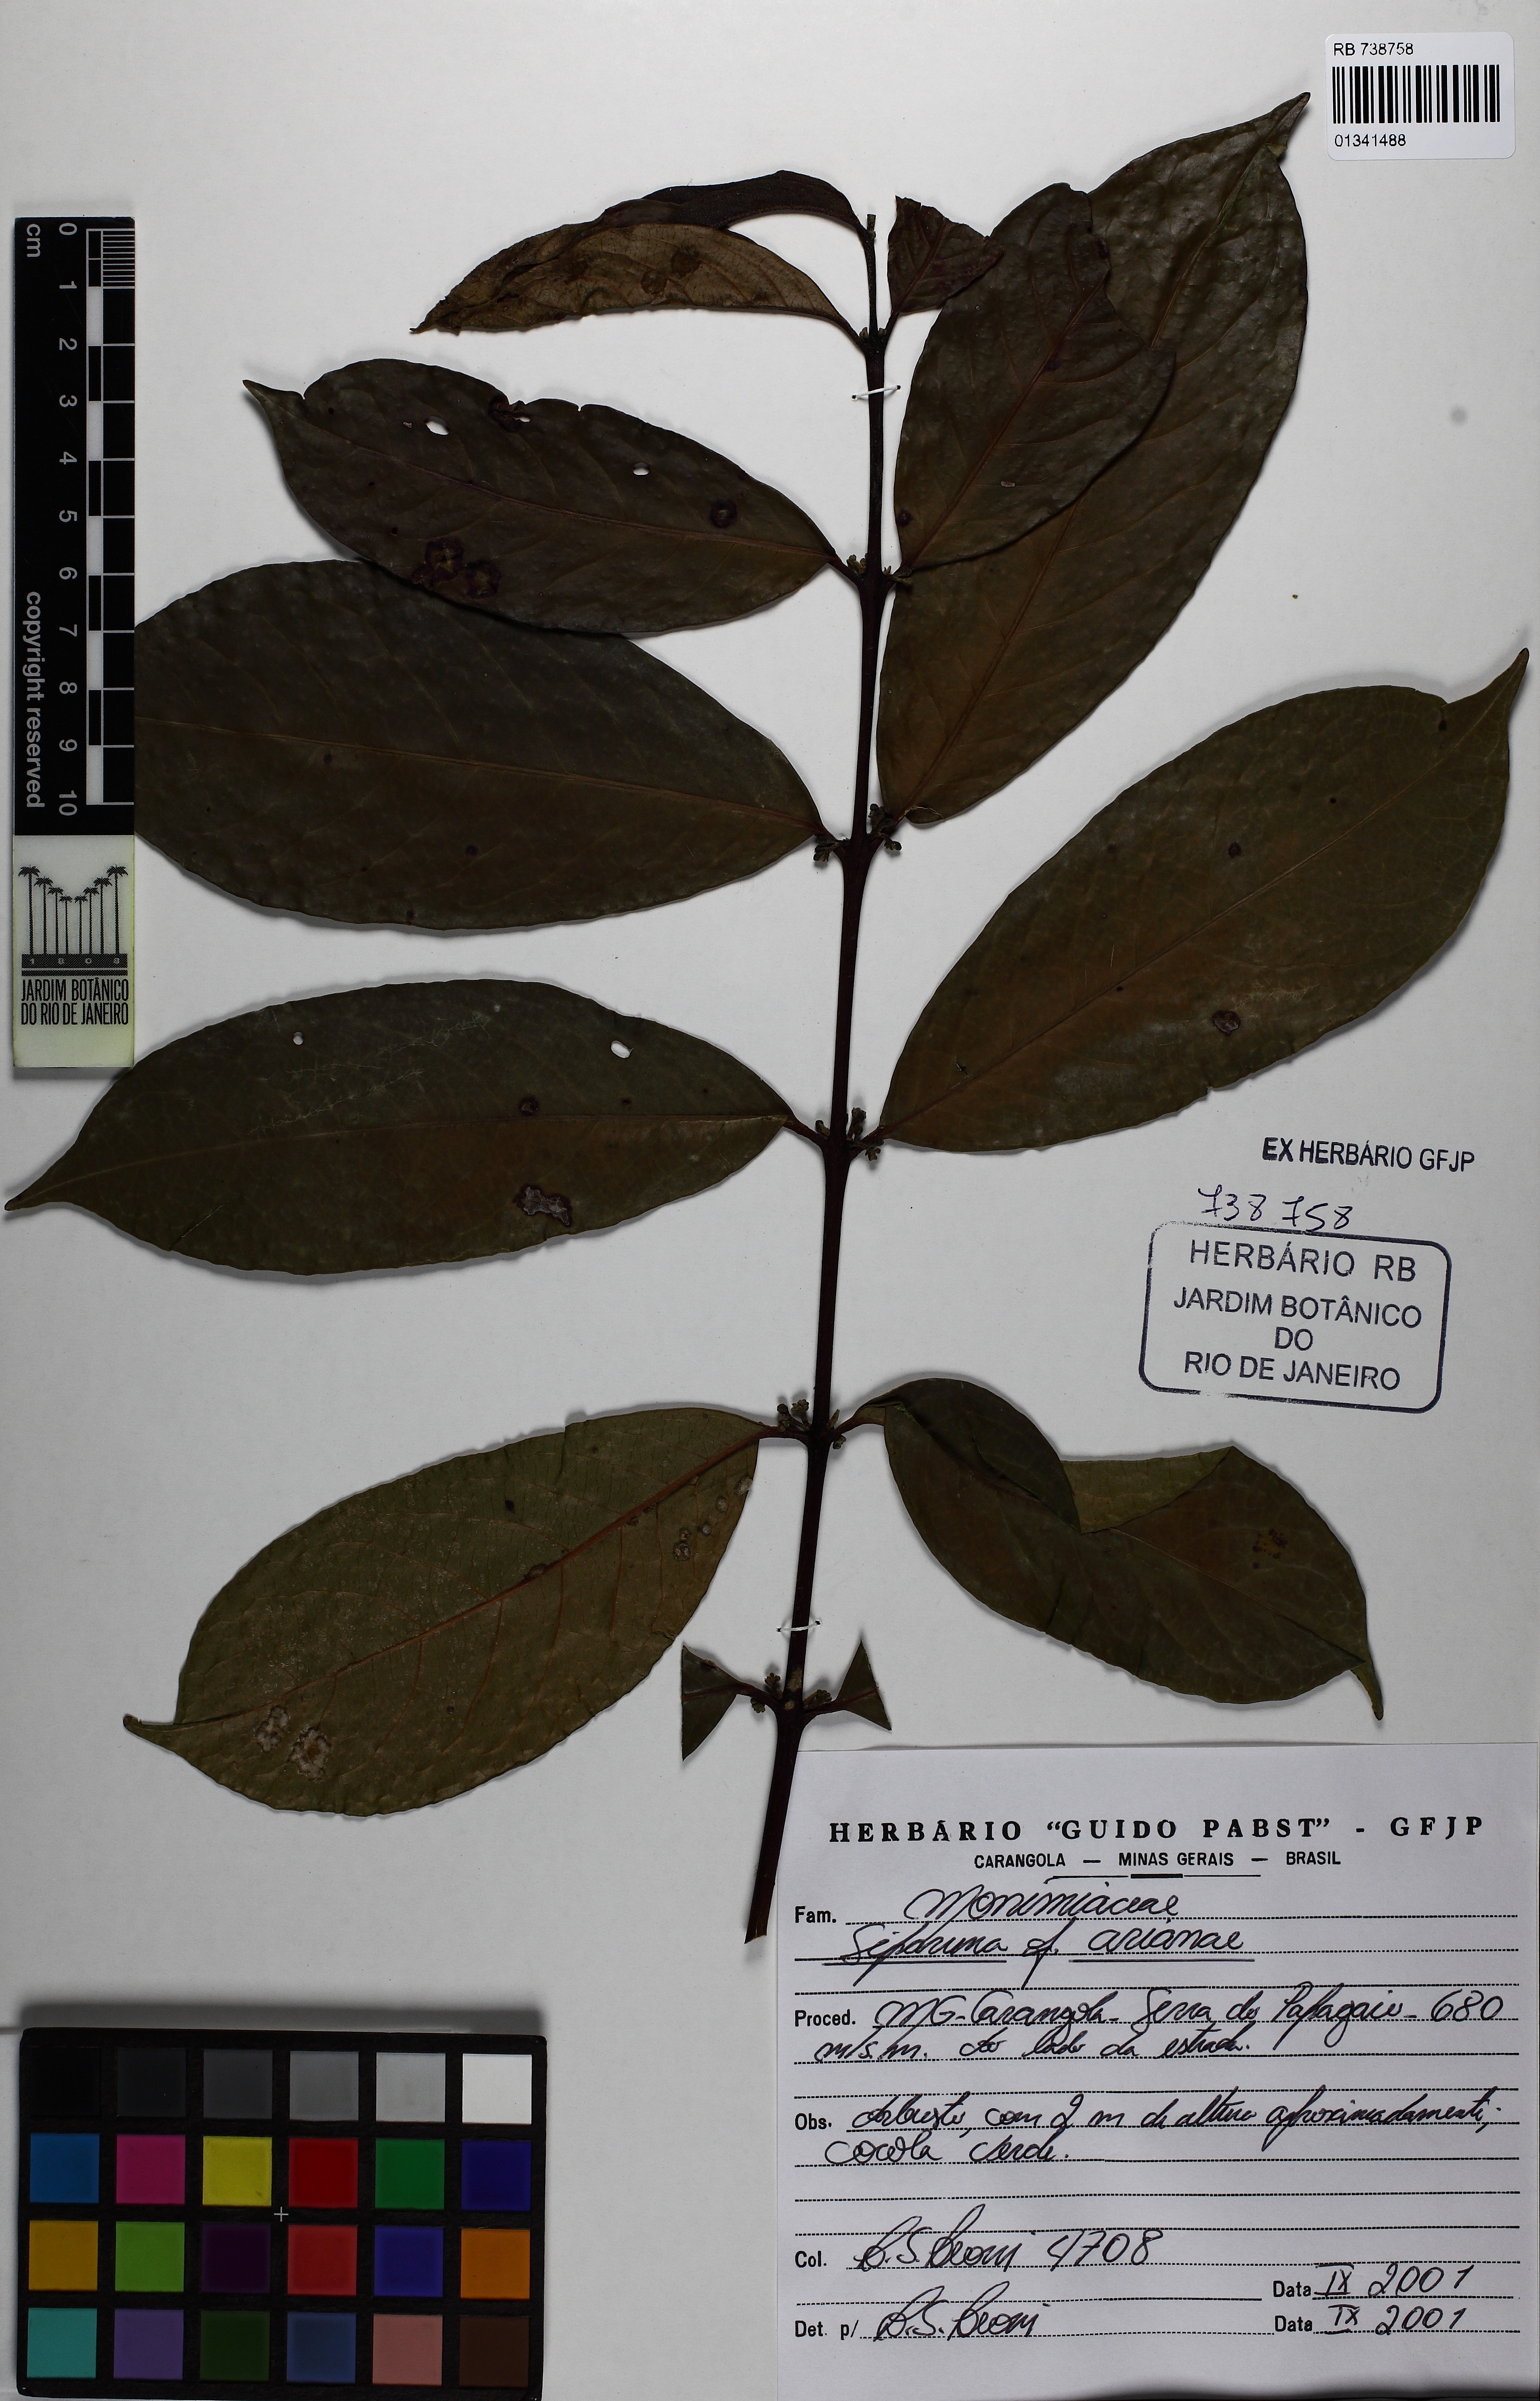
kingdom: Plantae
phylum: Tracheophyta
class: Magnoliopsida
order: Laurales
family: Siparunaceae
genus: Siparuna
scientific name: Siparuna guianensis
